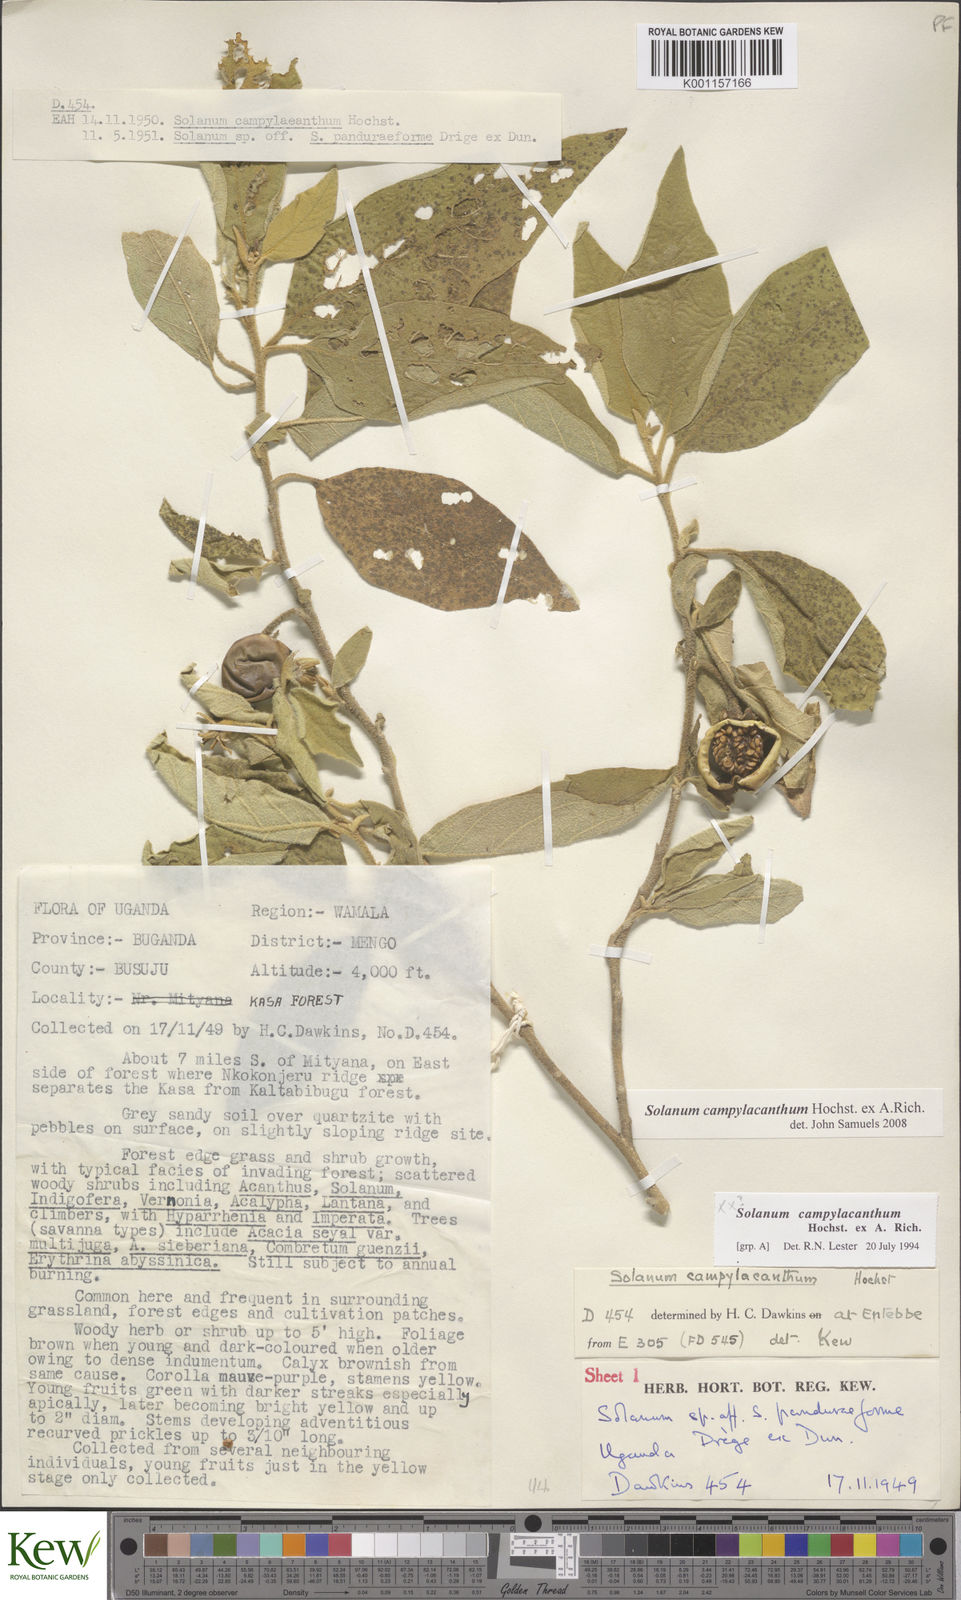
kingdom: Plantae
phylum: Tracheophyta
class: Magnoliopsida
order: Solanales
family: Solanaceae
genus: Solanum
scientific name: Solanum campylacanthum
